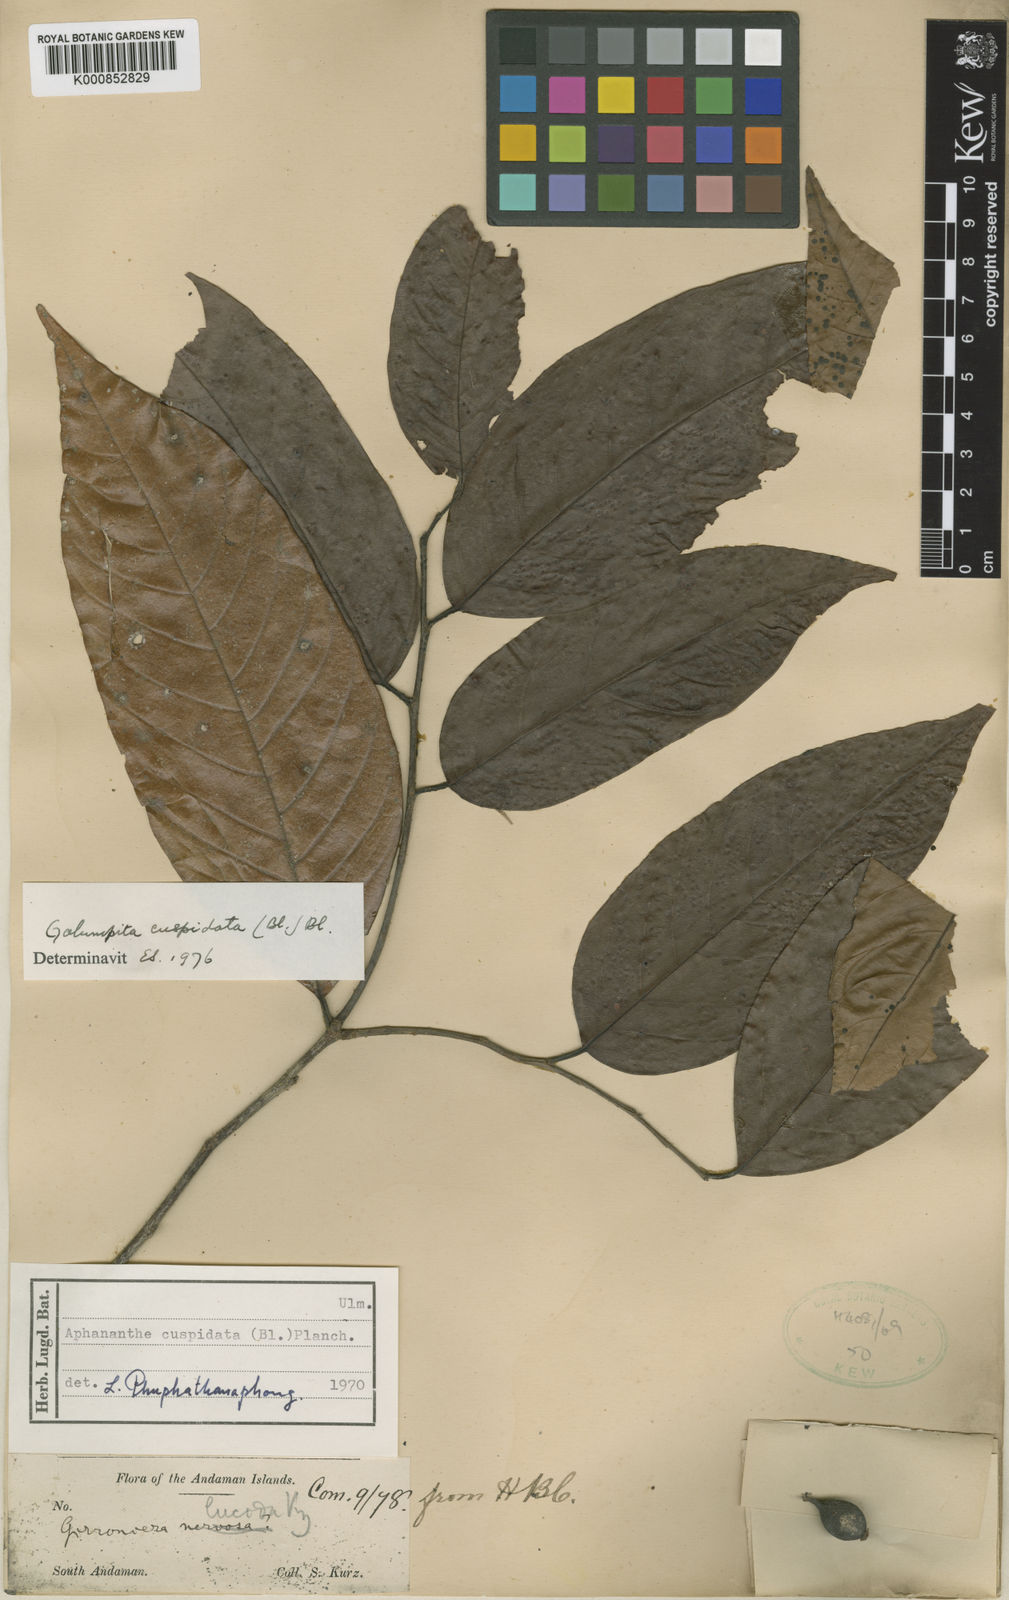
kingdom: Plantae
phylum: Tracheophyta
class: Magnoliopsida
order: Rosales
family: Cannabaceae
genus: Aphananthe
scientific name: Aphananthe cuspidata
